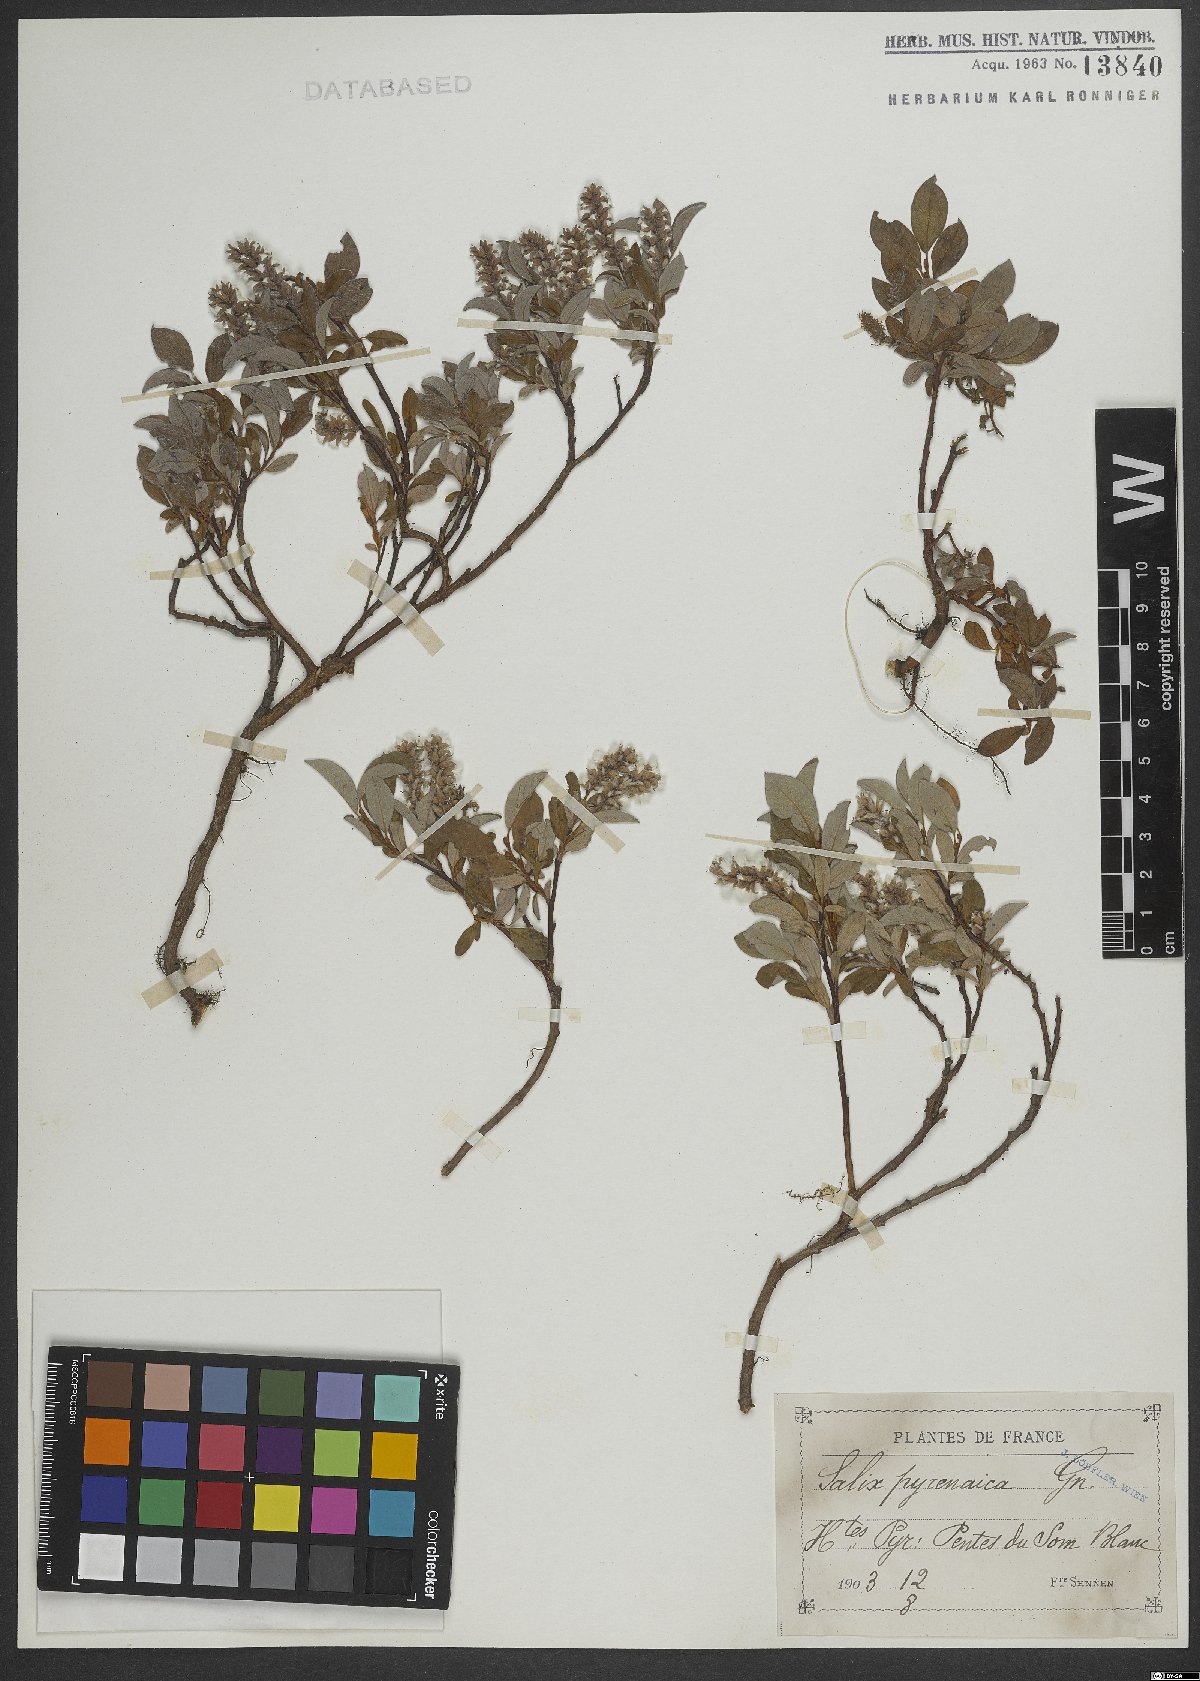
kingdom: Plantae
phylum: Tracheophyta
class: Magnoliopsida
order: Malpighiales
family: Salicaceae
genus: Salix
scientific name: Salix pyrenaica
